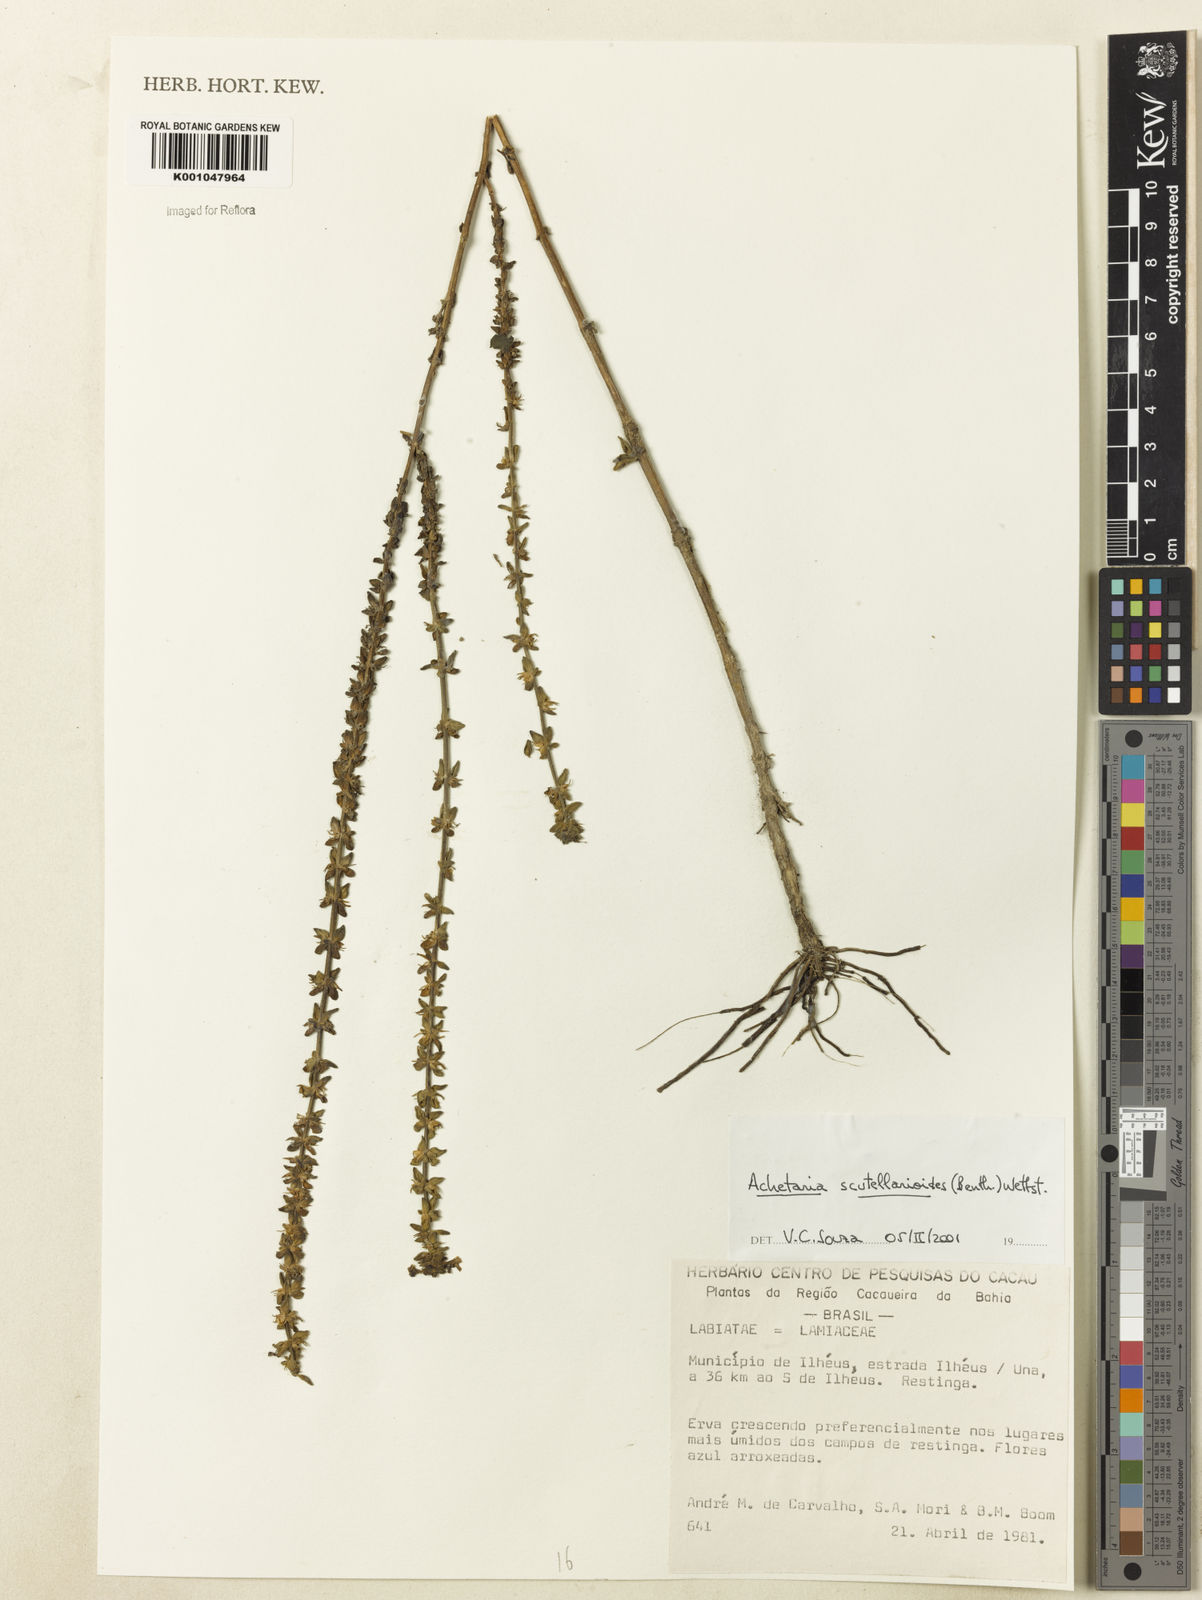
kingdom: Plantae
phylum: Tracheophyta
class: Magnoliopsida
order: Lamiales
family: Plantaginaceae
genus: Matourea
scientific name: Matourea scutellarioides
